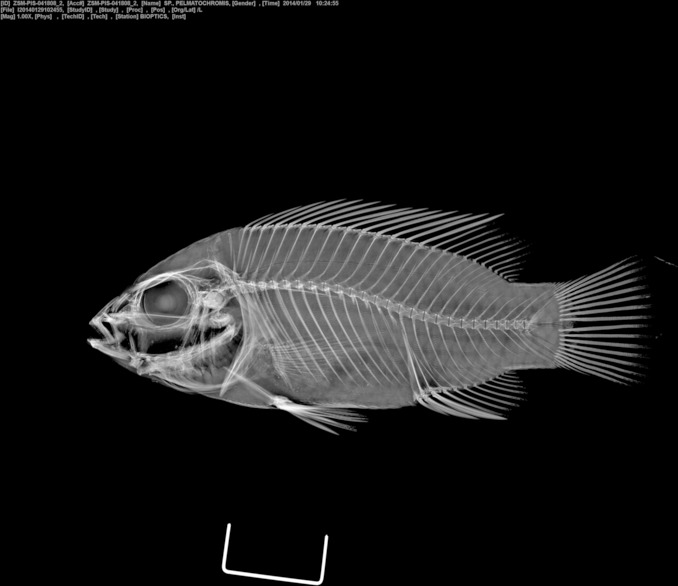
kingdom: Animalia
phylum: Chordata
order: Perciformes
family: Cichlidae
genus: Pelmatochromis
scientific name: Pelmatochromis
